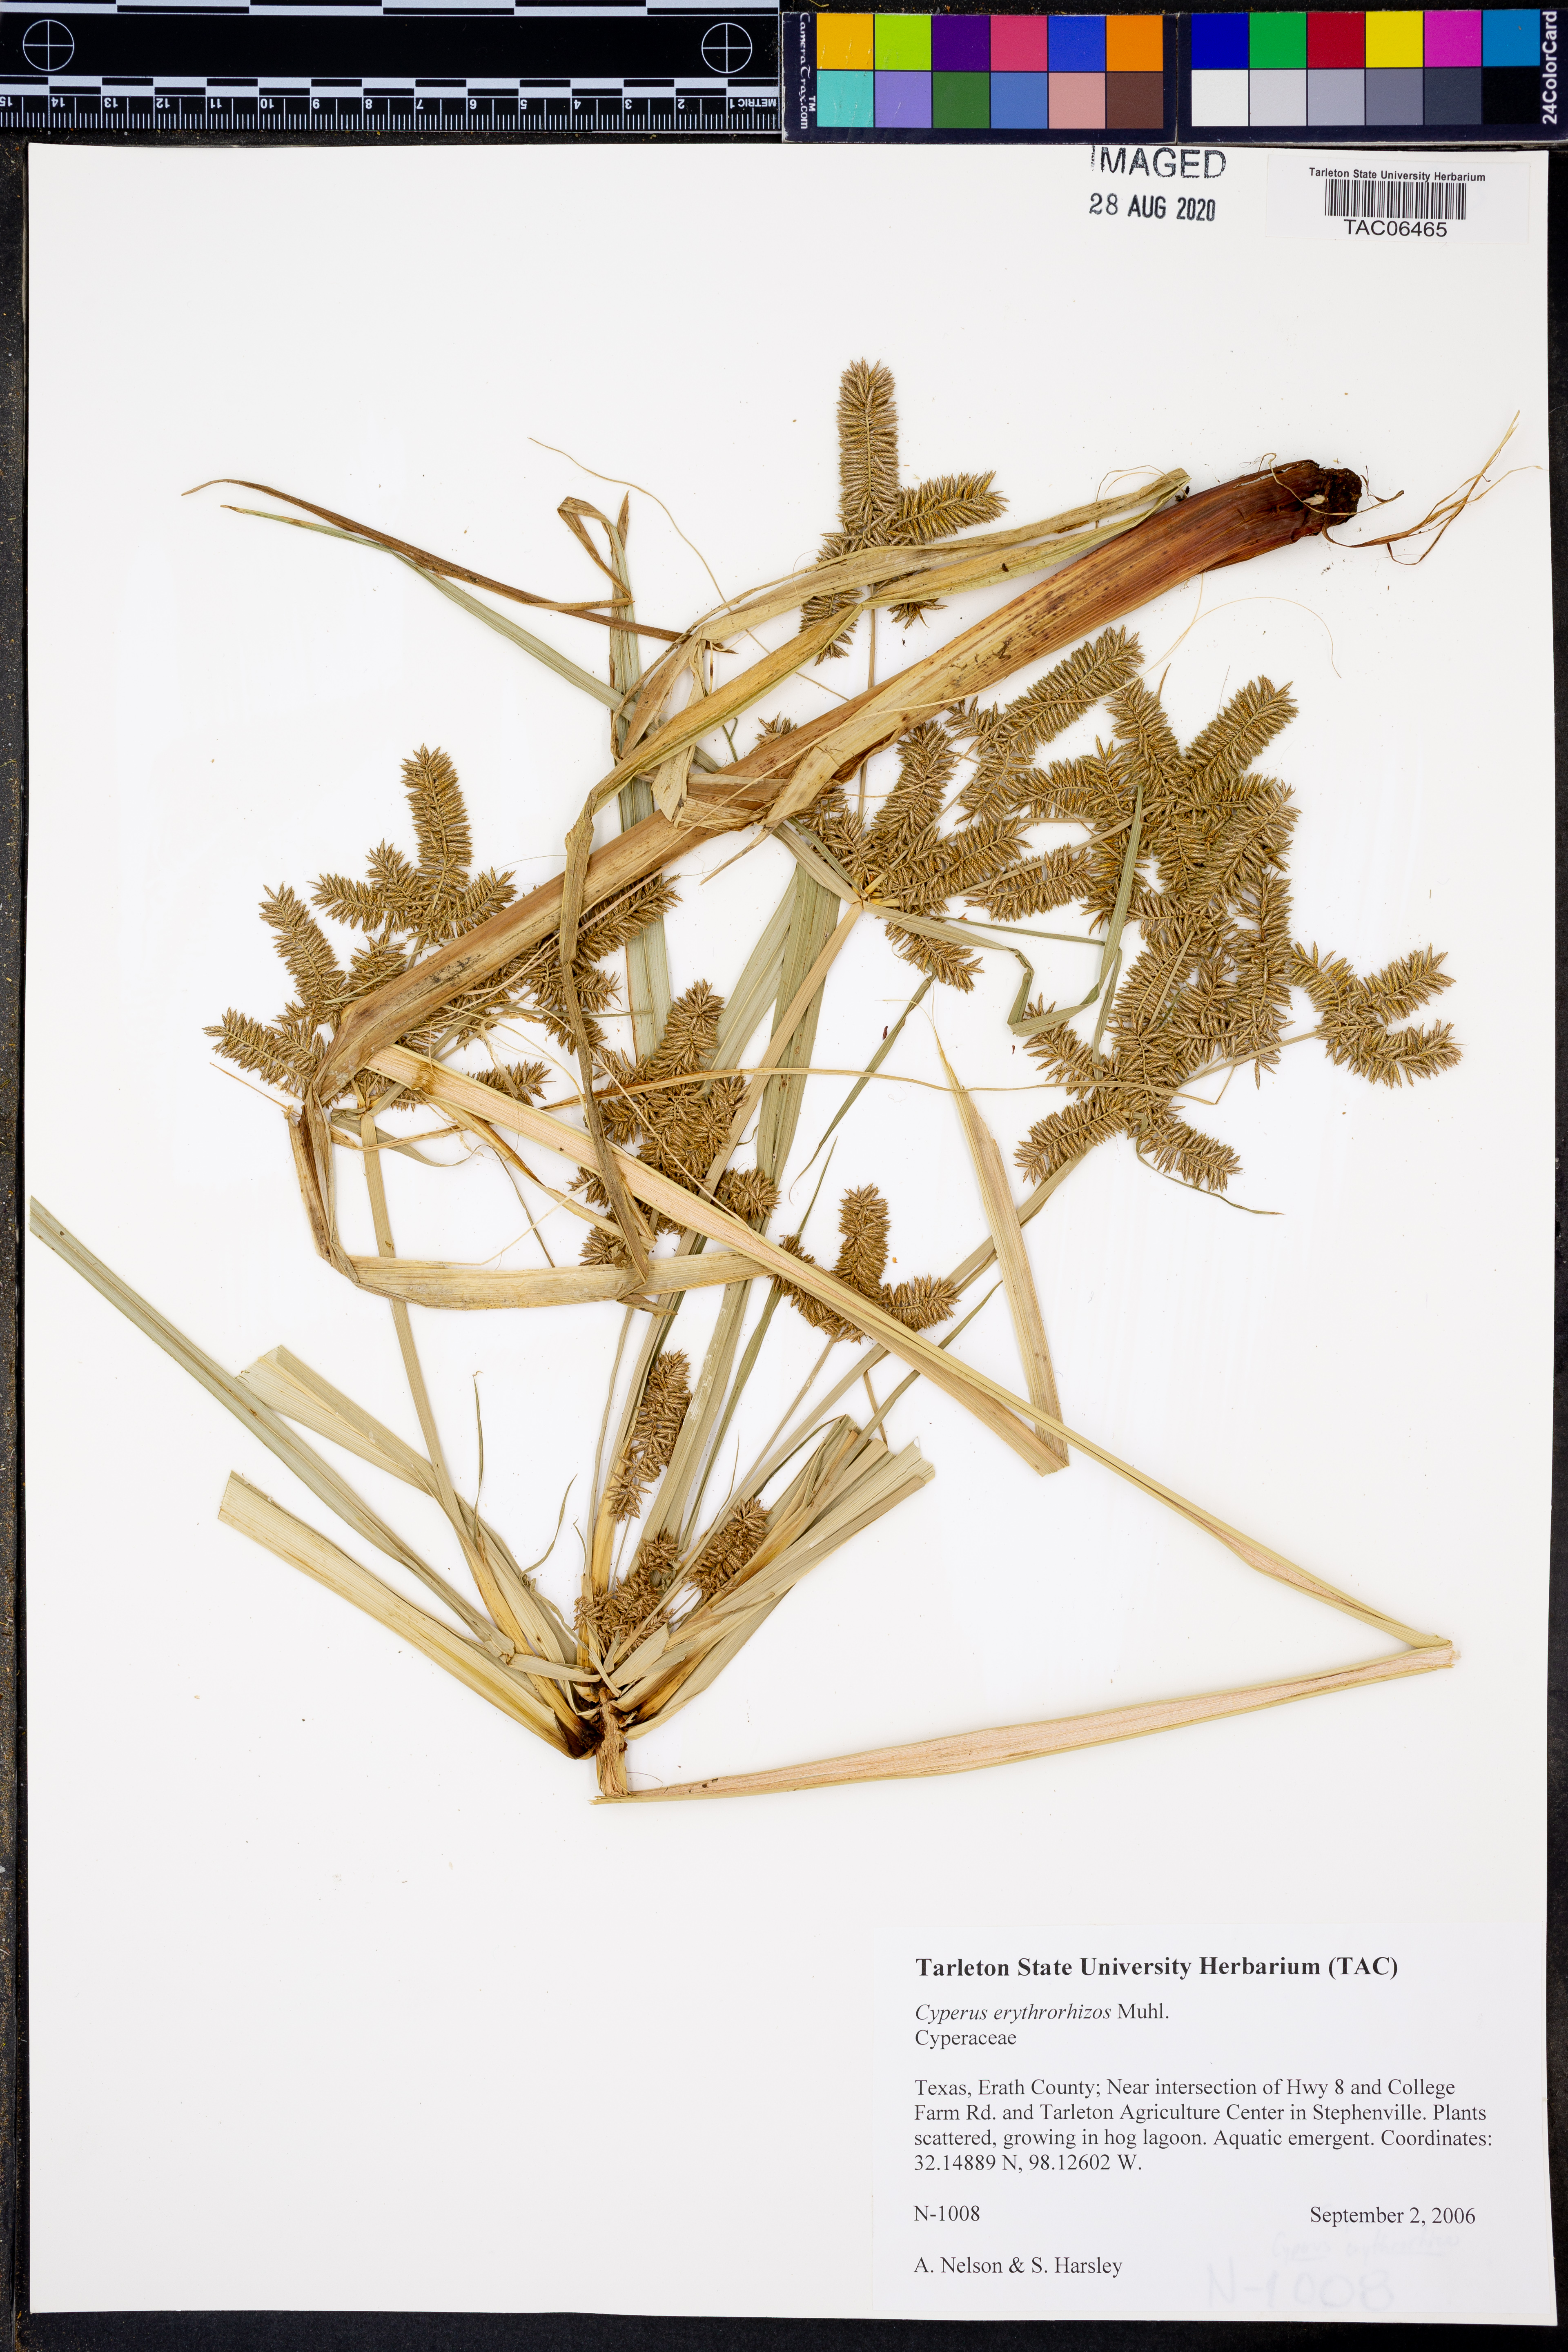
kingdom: Plantae
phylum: Tracheophyta
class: Liliopsida
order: Poales
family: Cyperaceae
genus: Cyperus
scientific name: Cyperus erythrorhizos
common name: Red-root flat sedge
